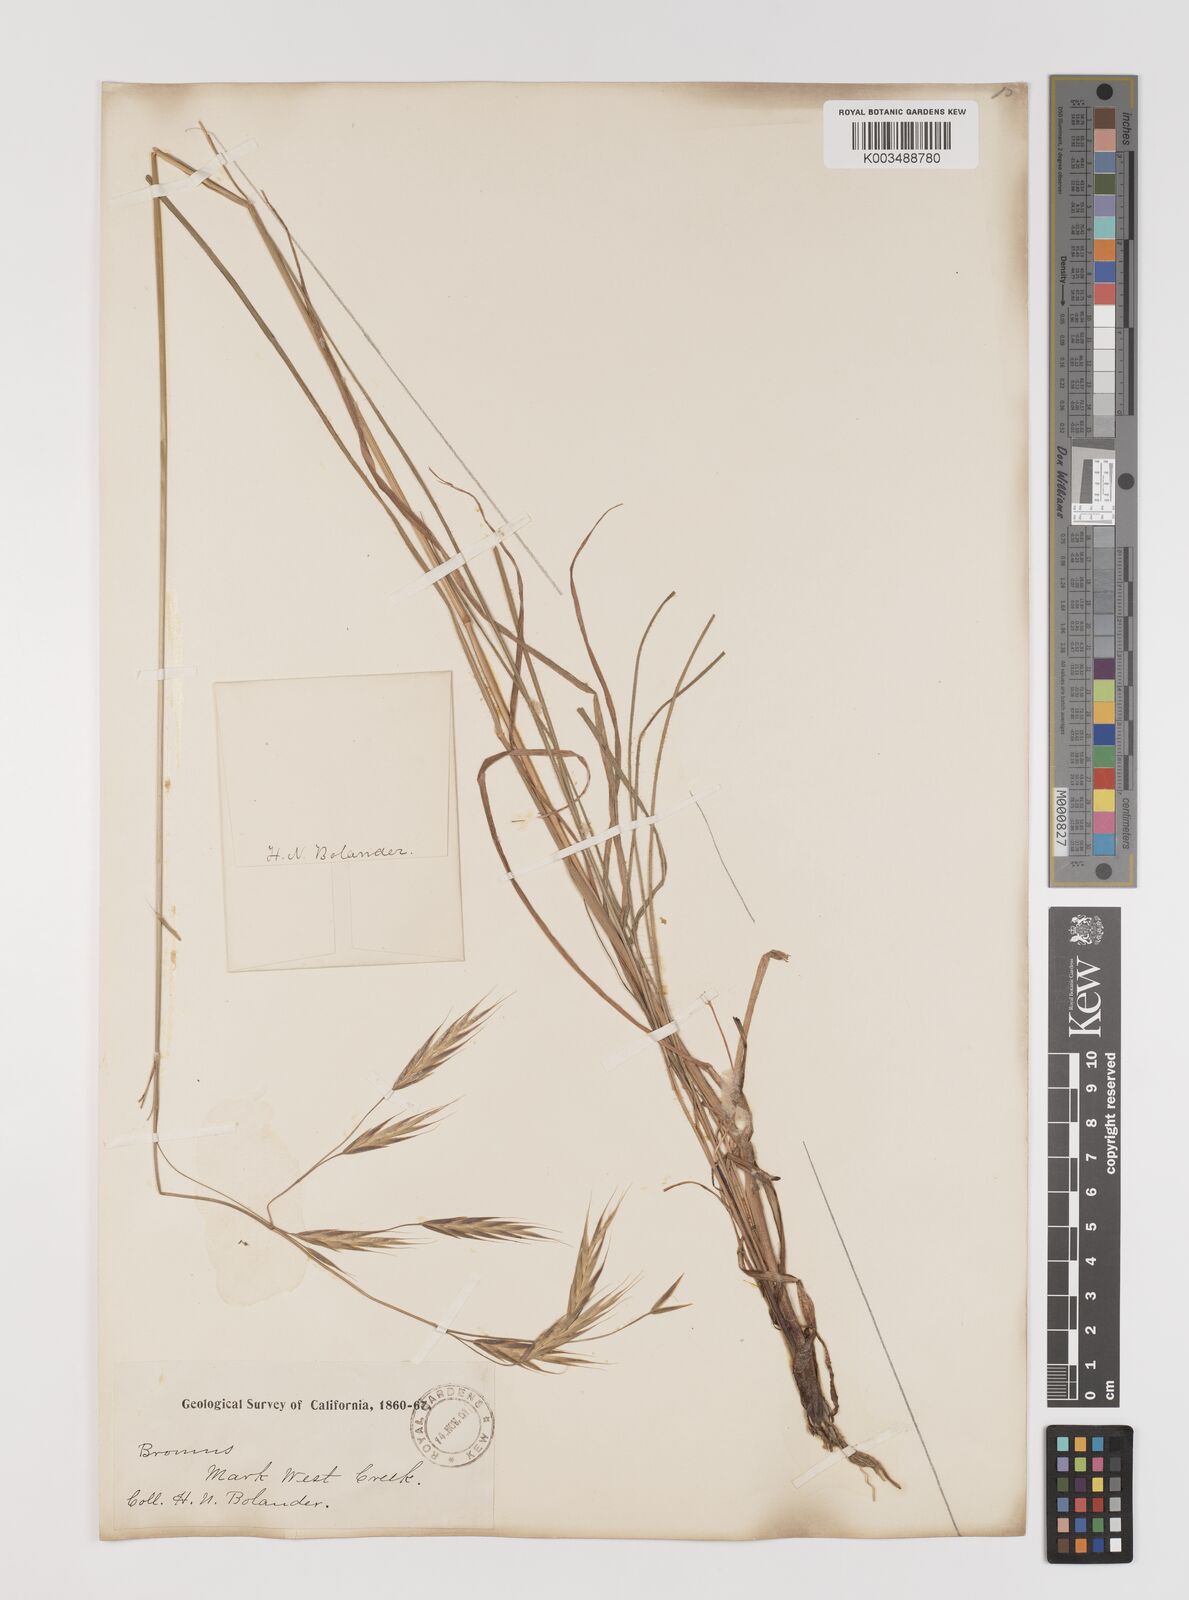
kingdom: Plantae
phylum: Tracheophyta
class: Liliopsida
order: Poales
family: Poaceae
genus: Bromus
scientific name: Bromus
